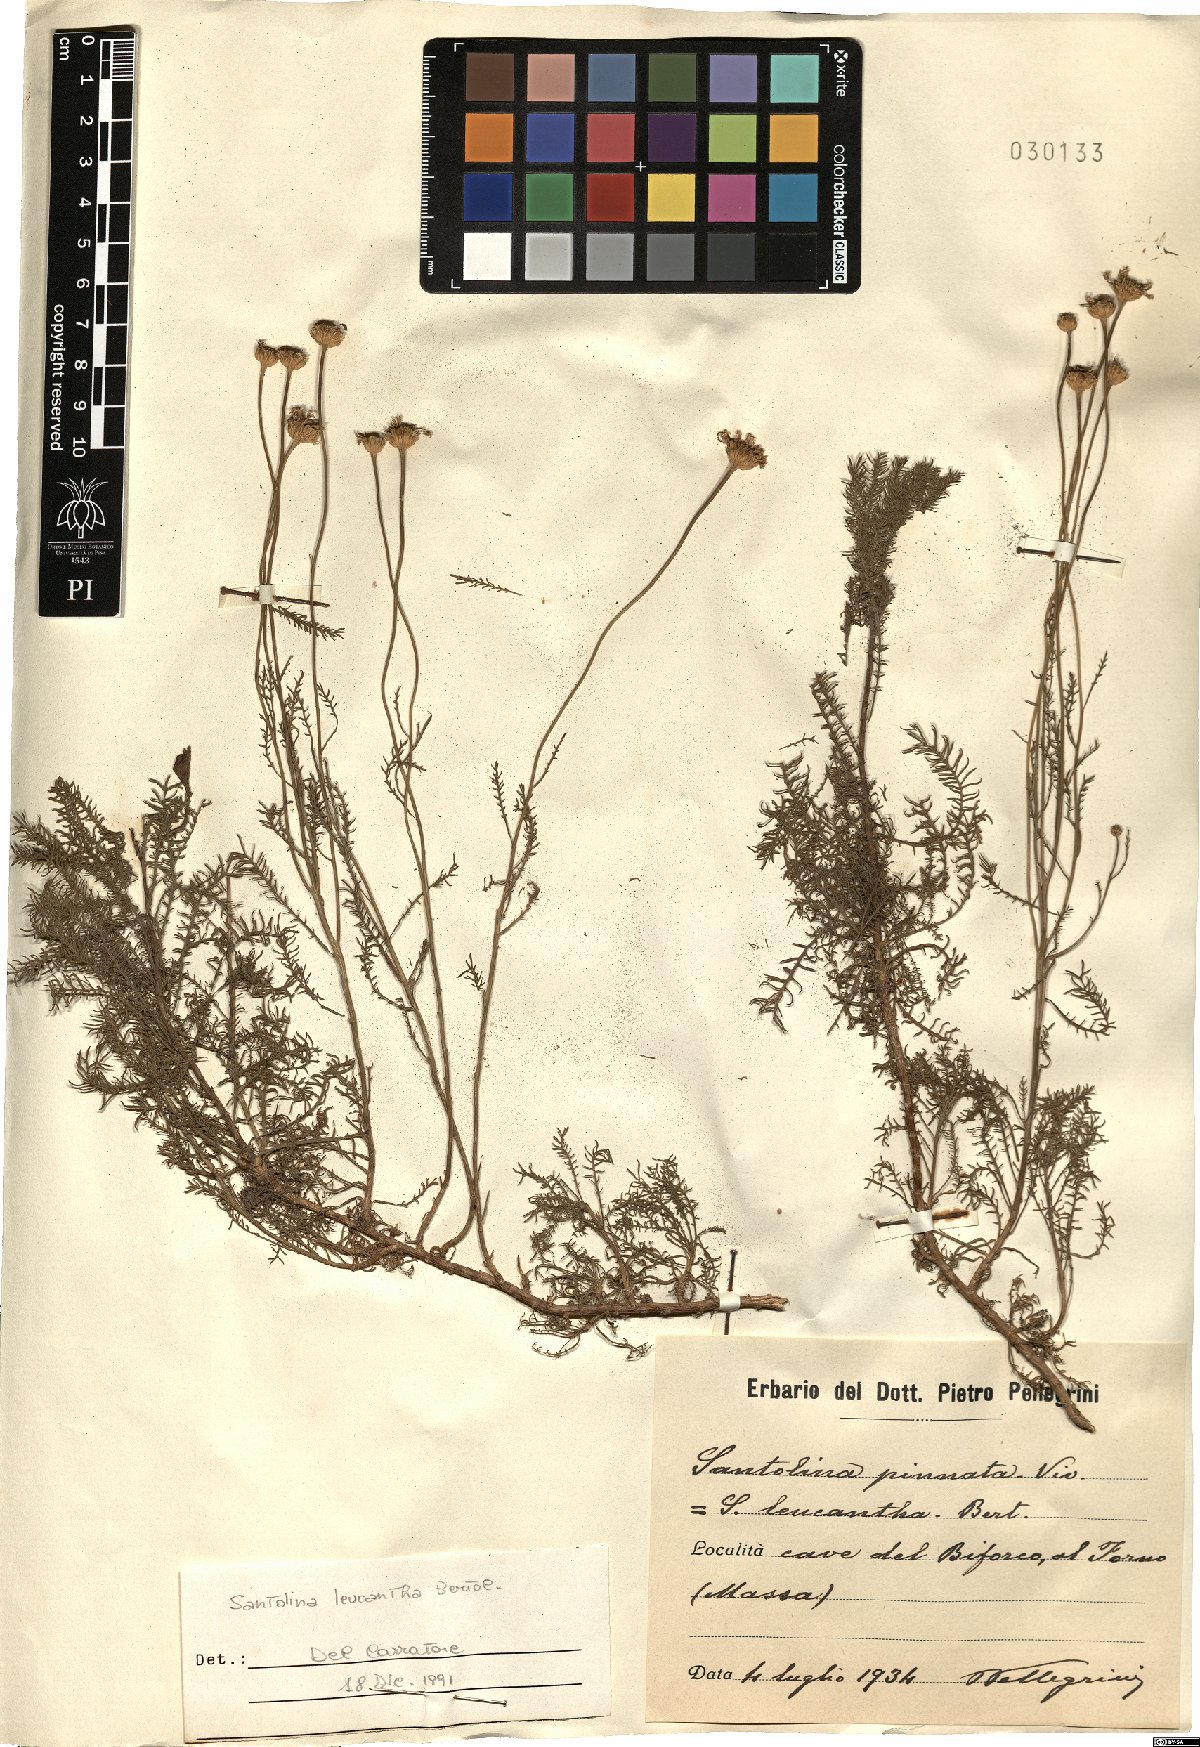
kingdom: Plantae
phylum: Tracheophyta
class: Magnoliopsida
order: Asterales
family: Asteraceae
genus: Santolina
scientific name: Santolina pinnata
